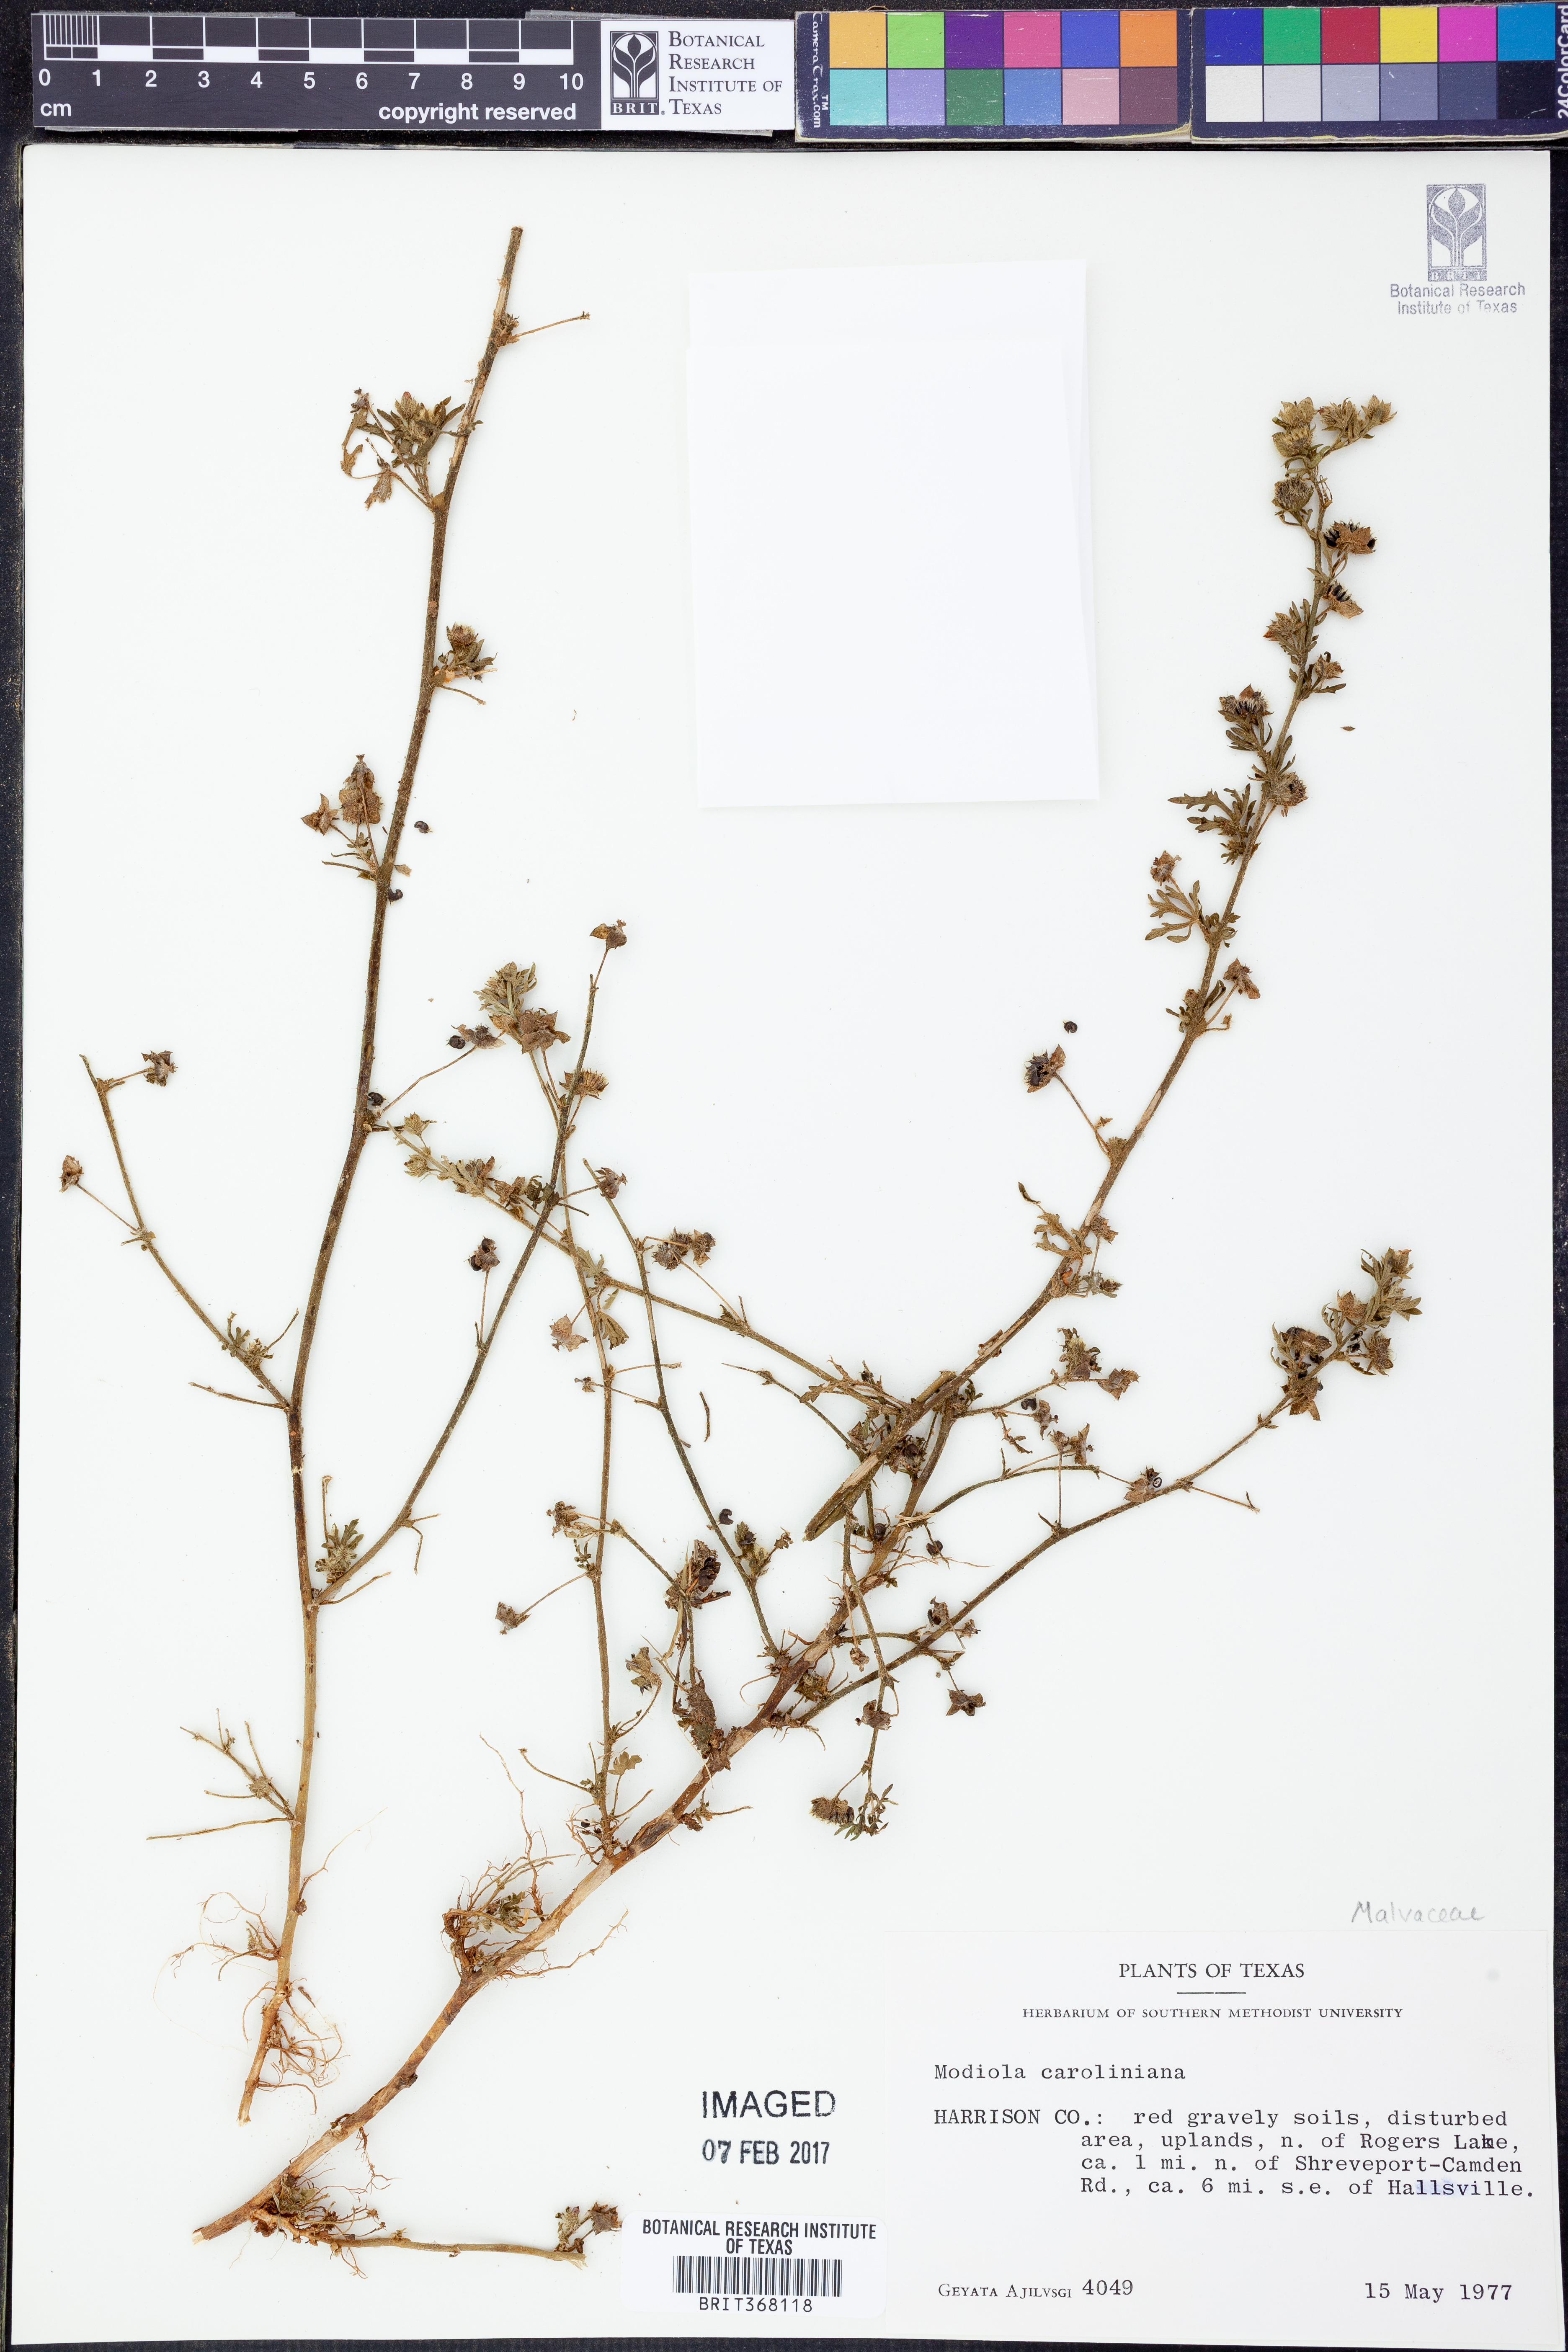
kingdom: Plantae
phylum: Tracheophyta
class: Magnoliopsida
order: Malvales
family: Malvaceae
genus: Modiola
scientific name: Modiola caroliniana
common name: Carolina bristlemallow
